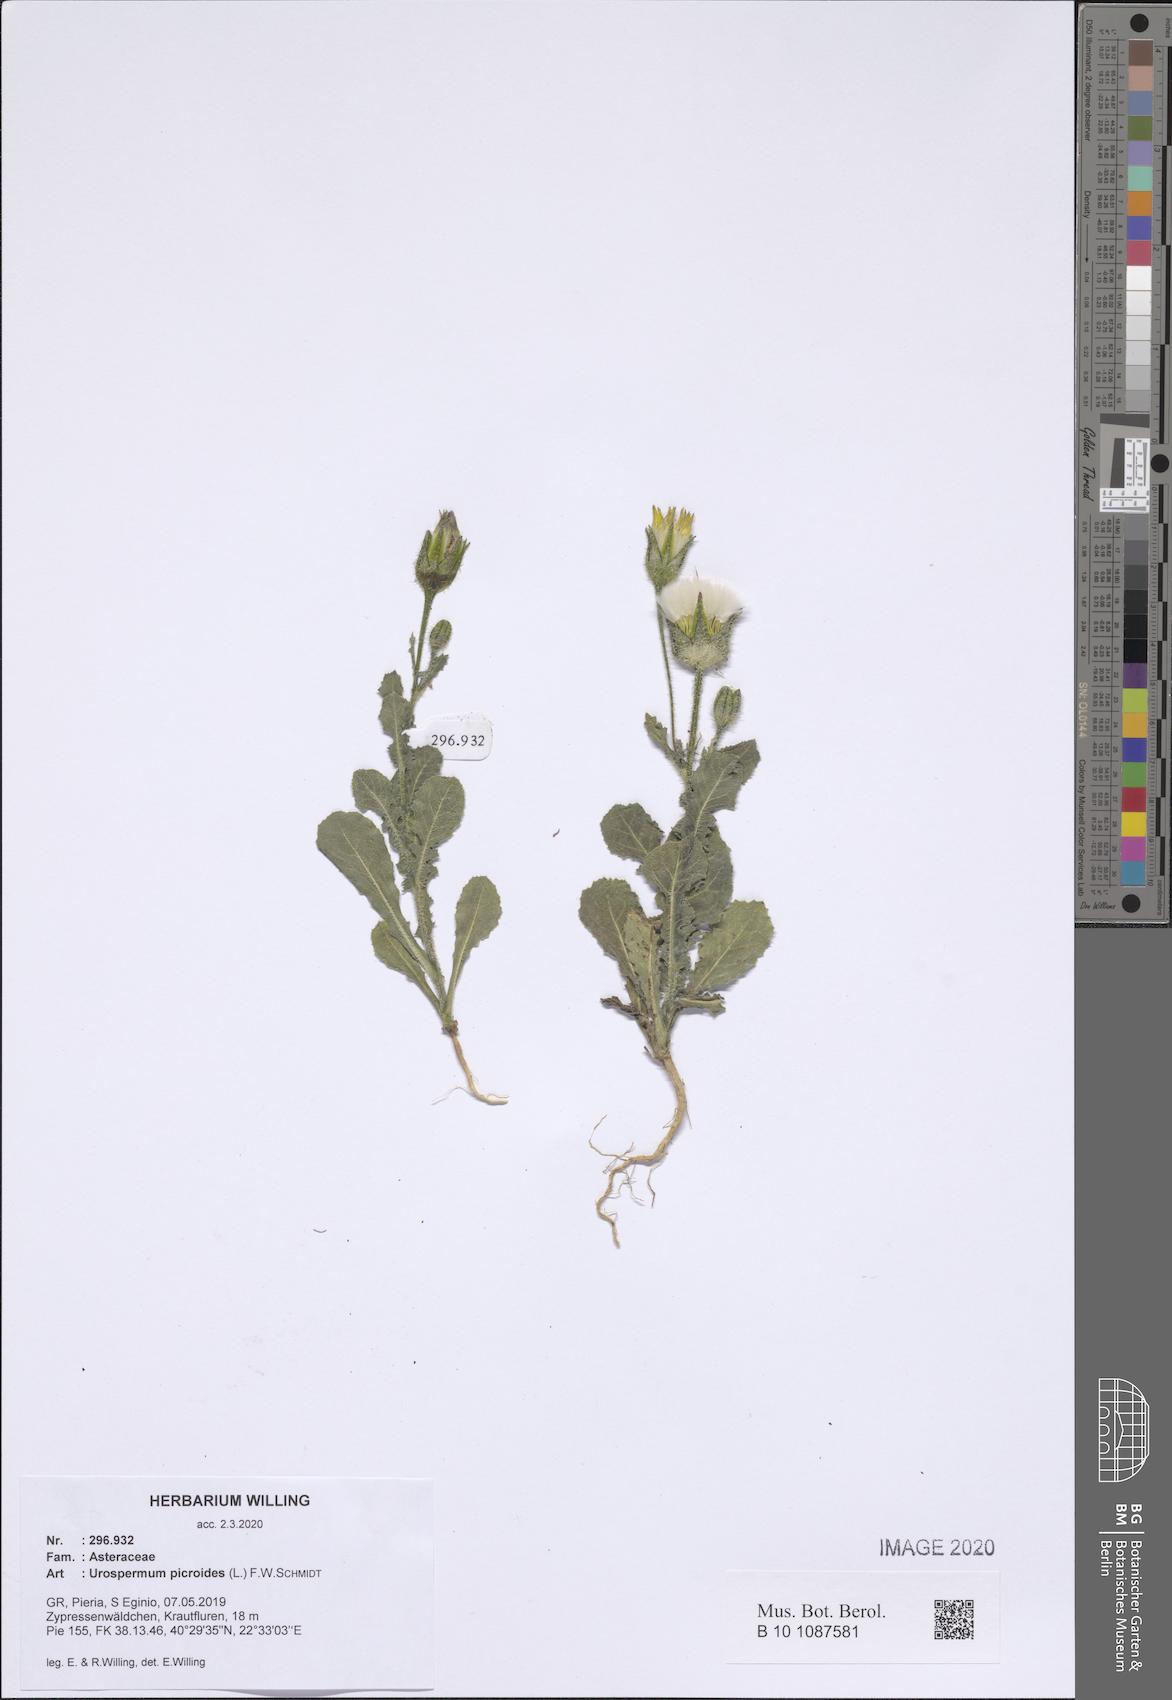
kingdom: Plantae
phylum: Tracheophyta
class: Magnoliopsida
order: Asterales
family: Asteraceae
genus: Urospermum
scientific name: Urospermum picroides
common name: False hawkbit
